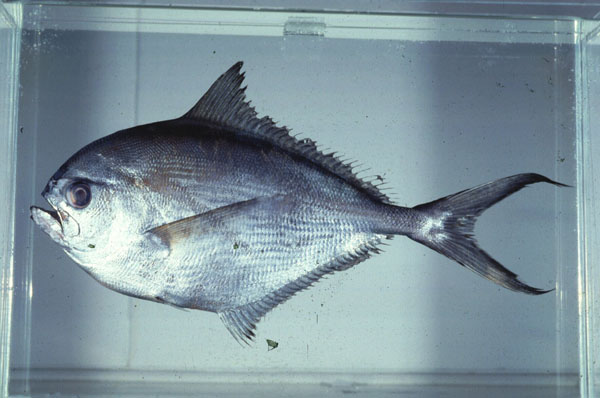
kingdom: Animalia
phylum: Chordata
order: Perciformes
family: Bramidae
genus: Brama
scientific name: Brama
